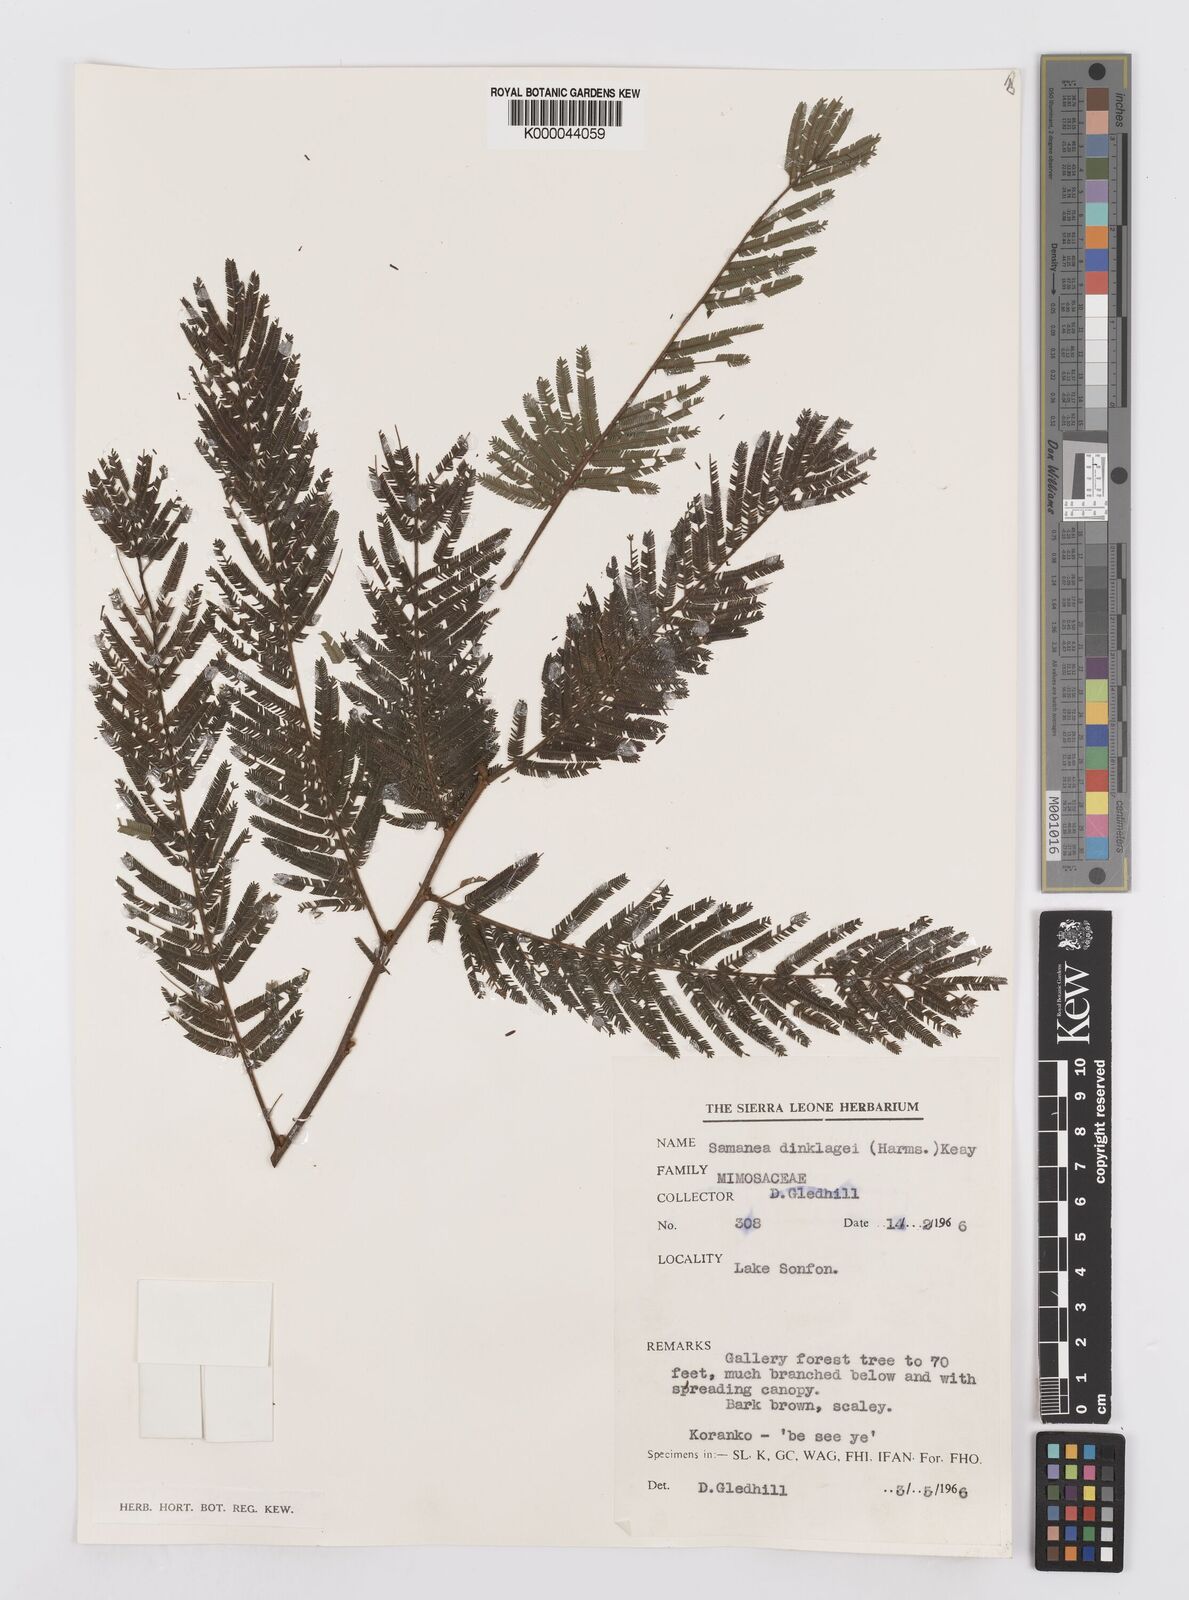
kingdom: Plantae
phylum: Tracheophyta
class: Magnoliopsida
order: Fabales
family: Fabaceae
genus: Albizia
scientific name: Albizia dinklagei
